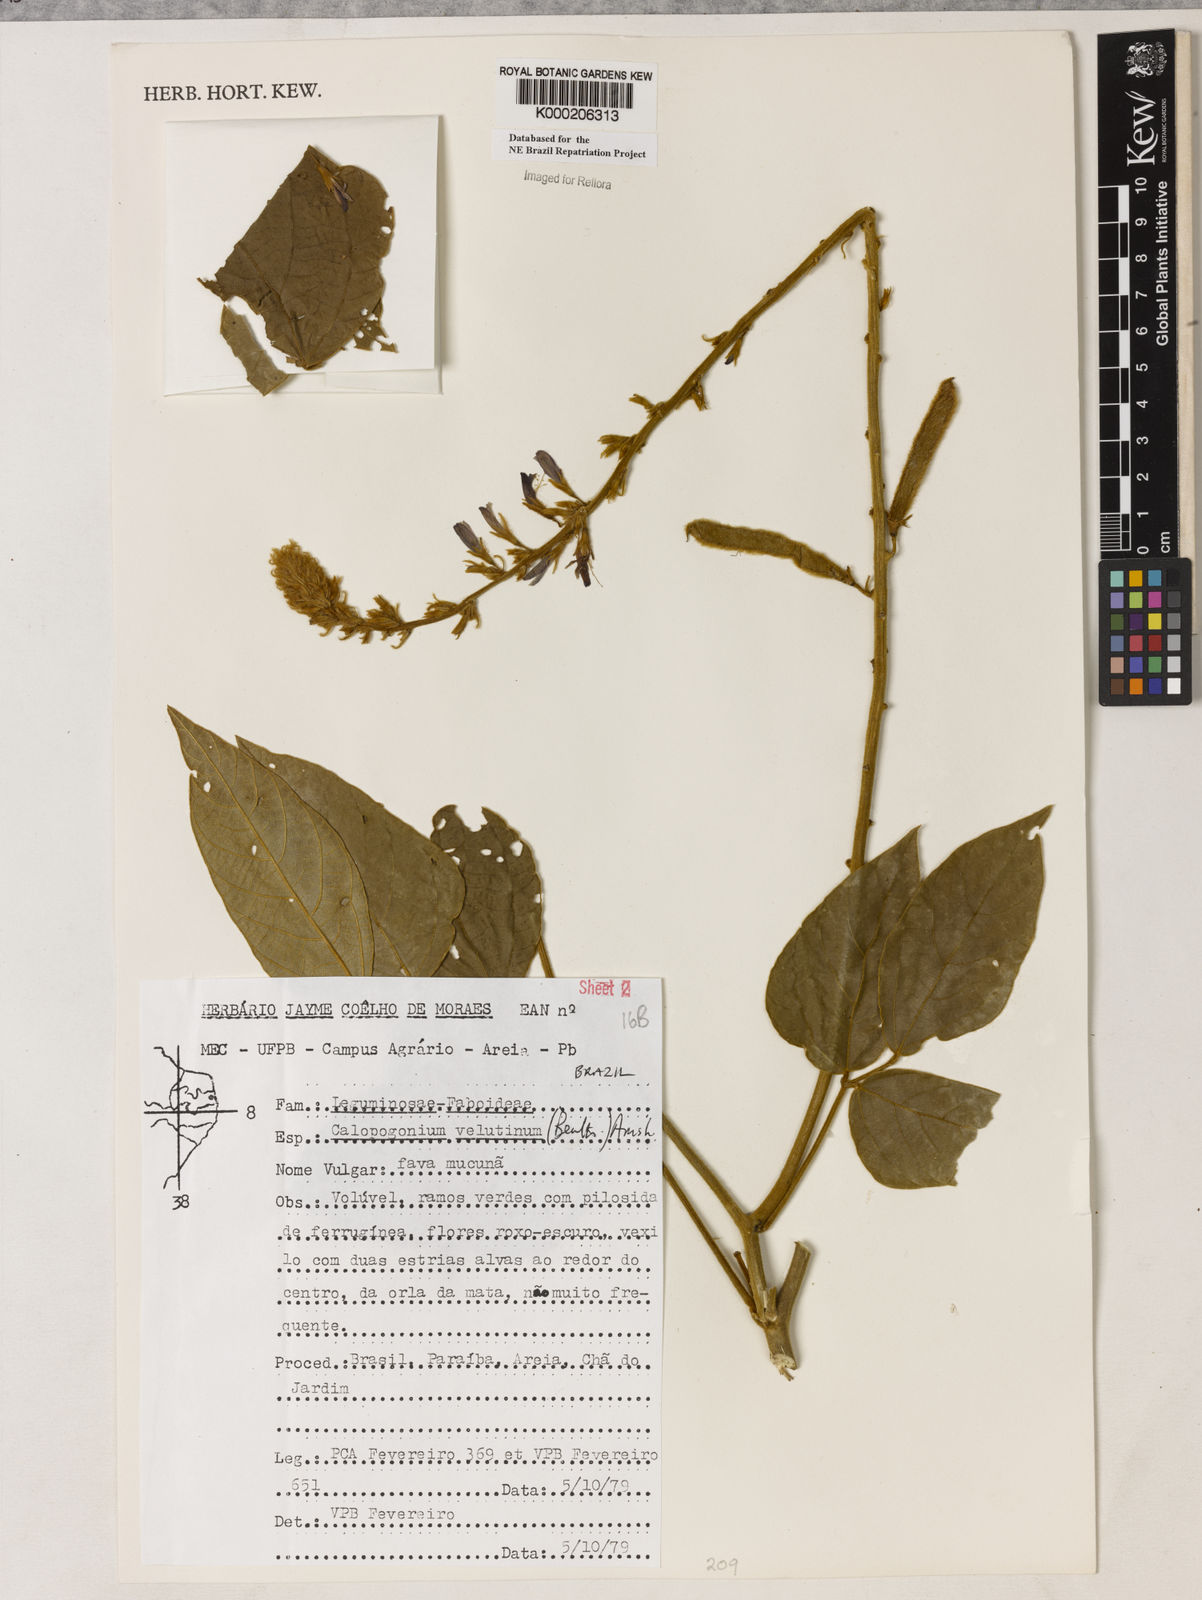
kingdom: Plantae
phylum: Tracheophyta
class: Magnoliopsida
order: Fabales
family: Fabaceae
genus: Calopogonium
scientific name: Calopogonium velutinum
